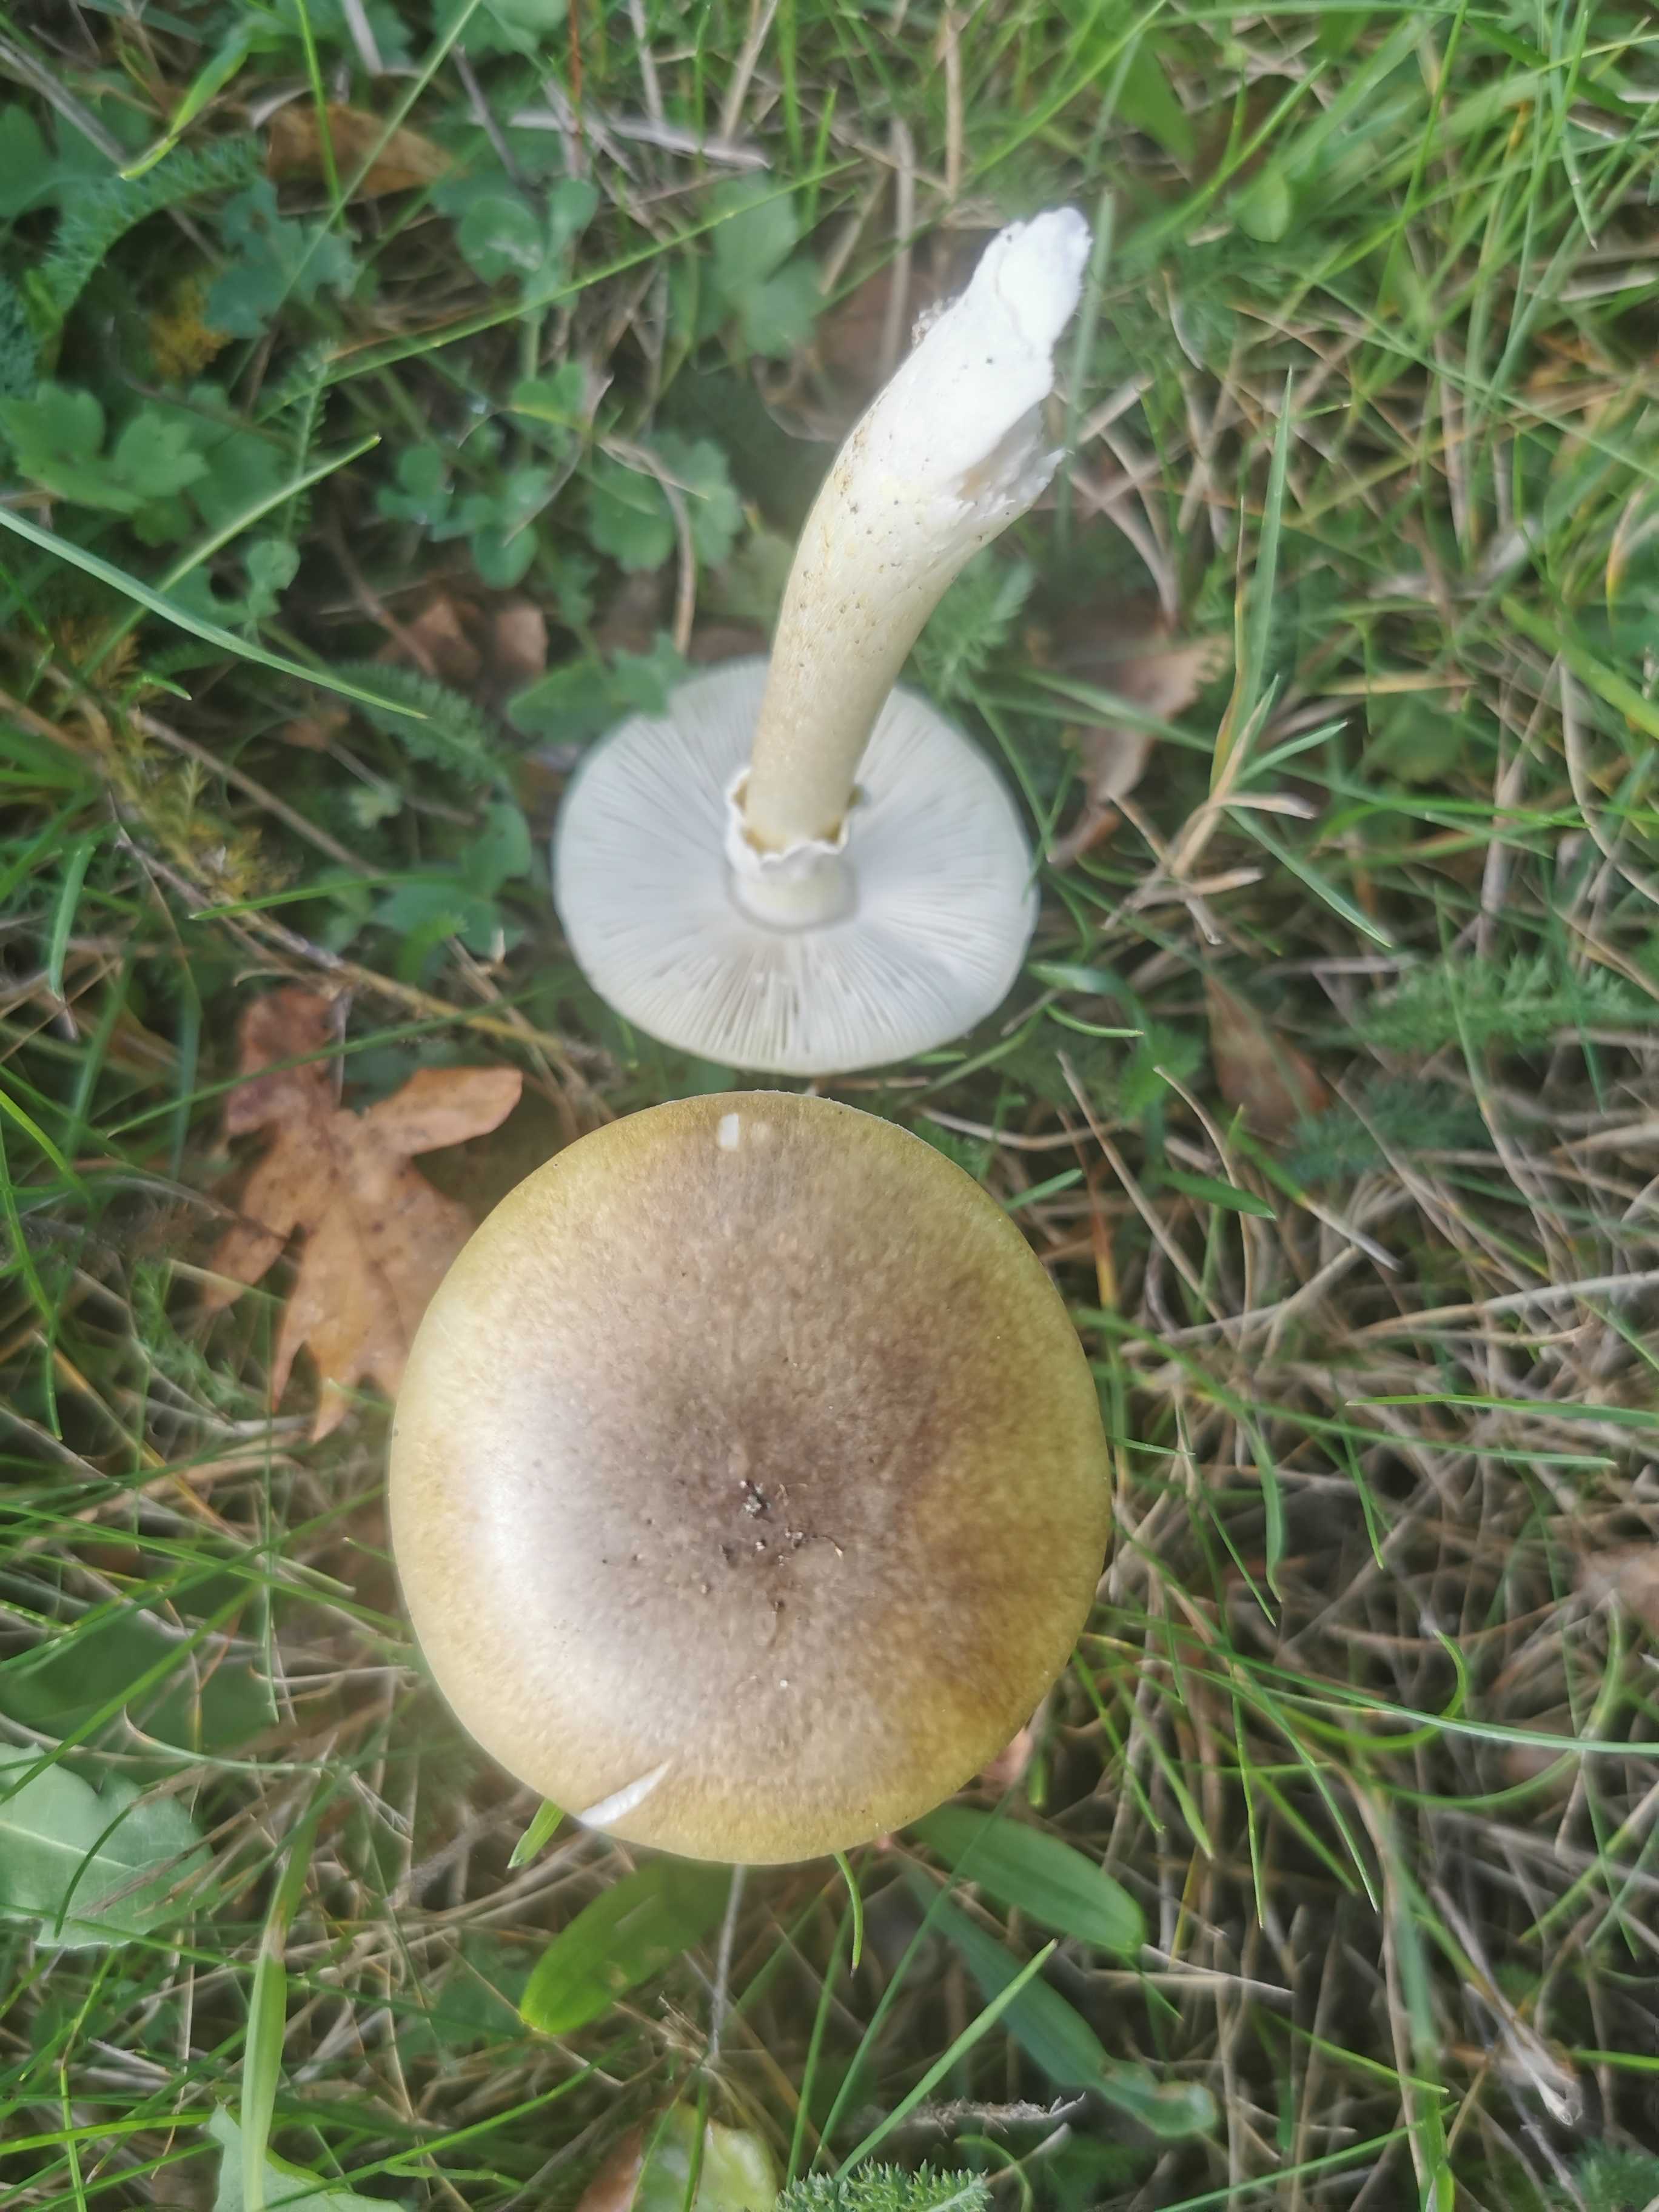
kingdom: Fungi
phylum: Basidiomycota
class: Agaricomycetes
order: Agaricales
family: Amanitaceae
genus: Amanita
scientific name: Amanita phalloides
